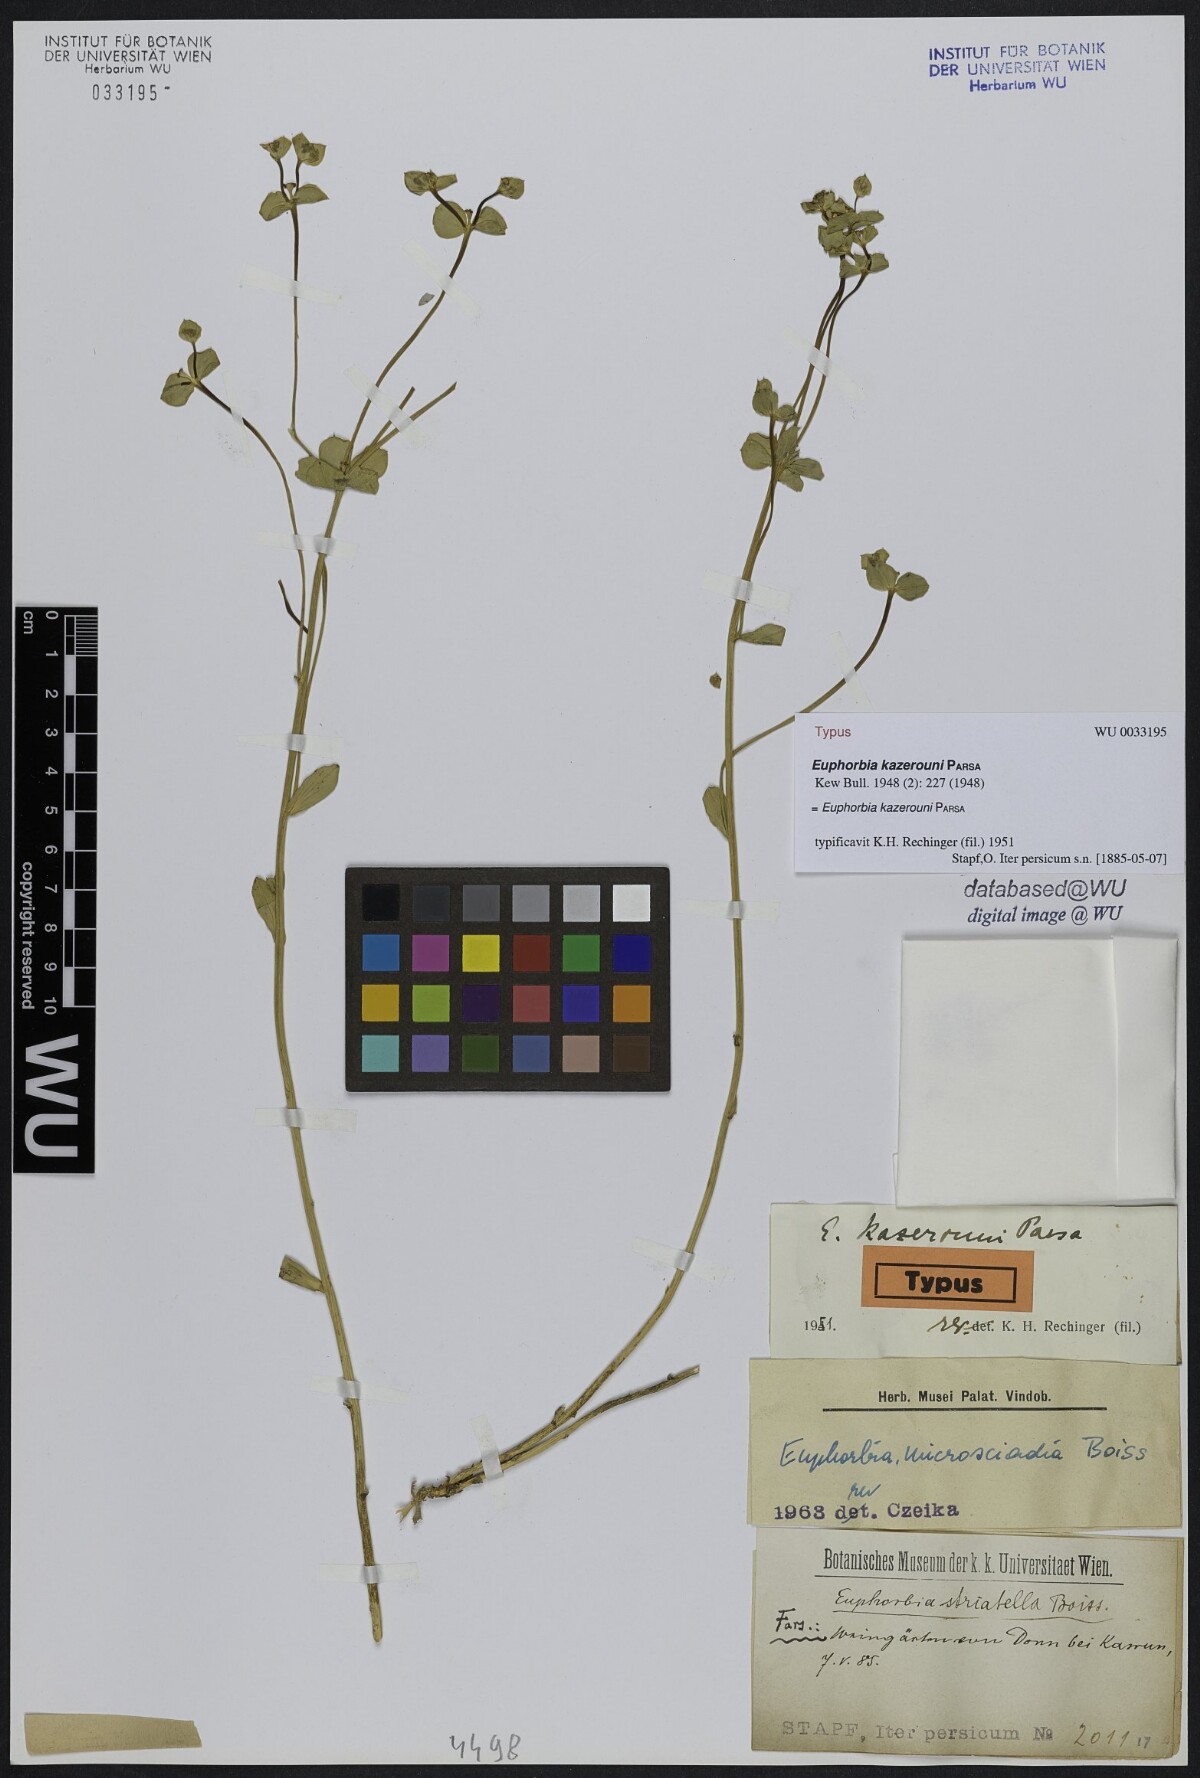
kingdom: Plantae
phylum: Tracheophyta
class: Magnoliopsida
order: Malpighiales
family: Euphorbiaceae
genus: Euphorbia
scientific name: Euphorbia microsciadia
